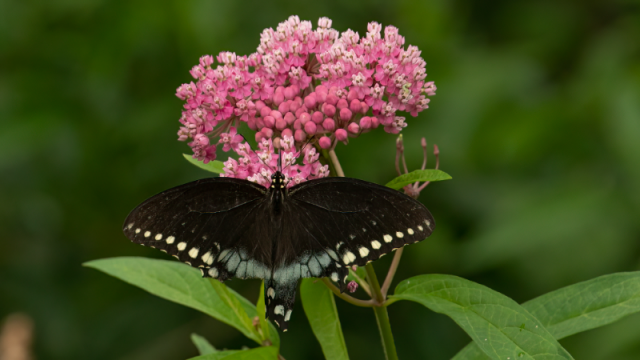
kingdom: Animalia
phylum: Arthropoda
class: Insecta
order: Lepidoptera
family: Papilionidae
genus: Pterourus
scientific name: Pterourus troilus
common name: Spicebush Swallowtail
